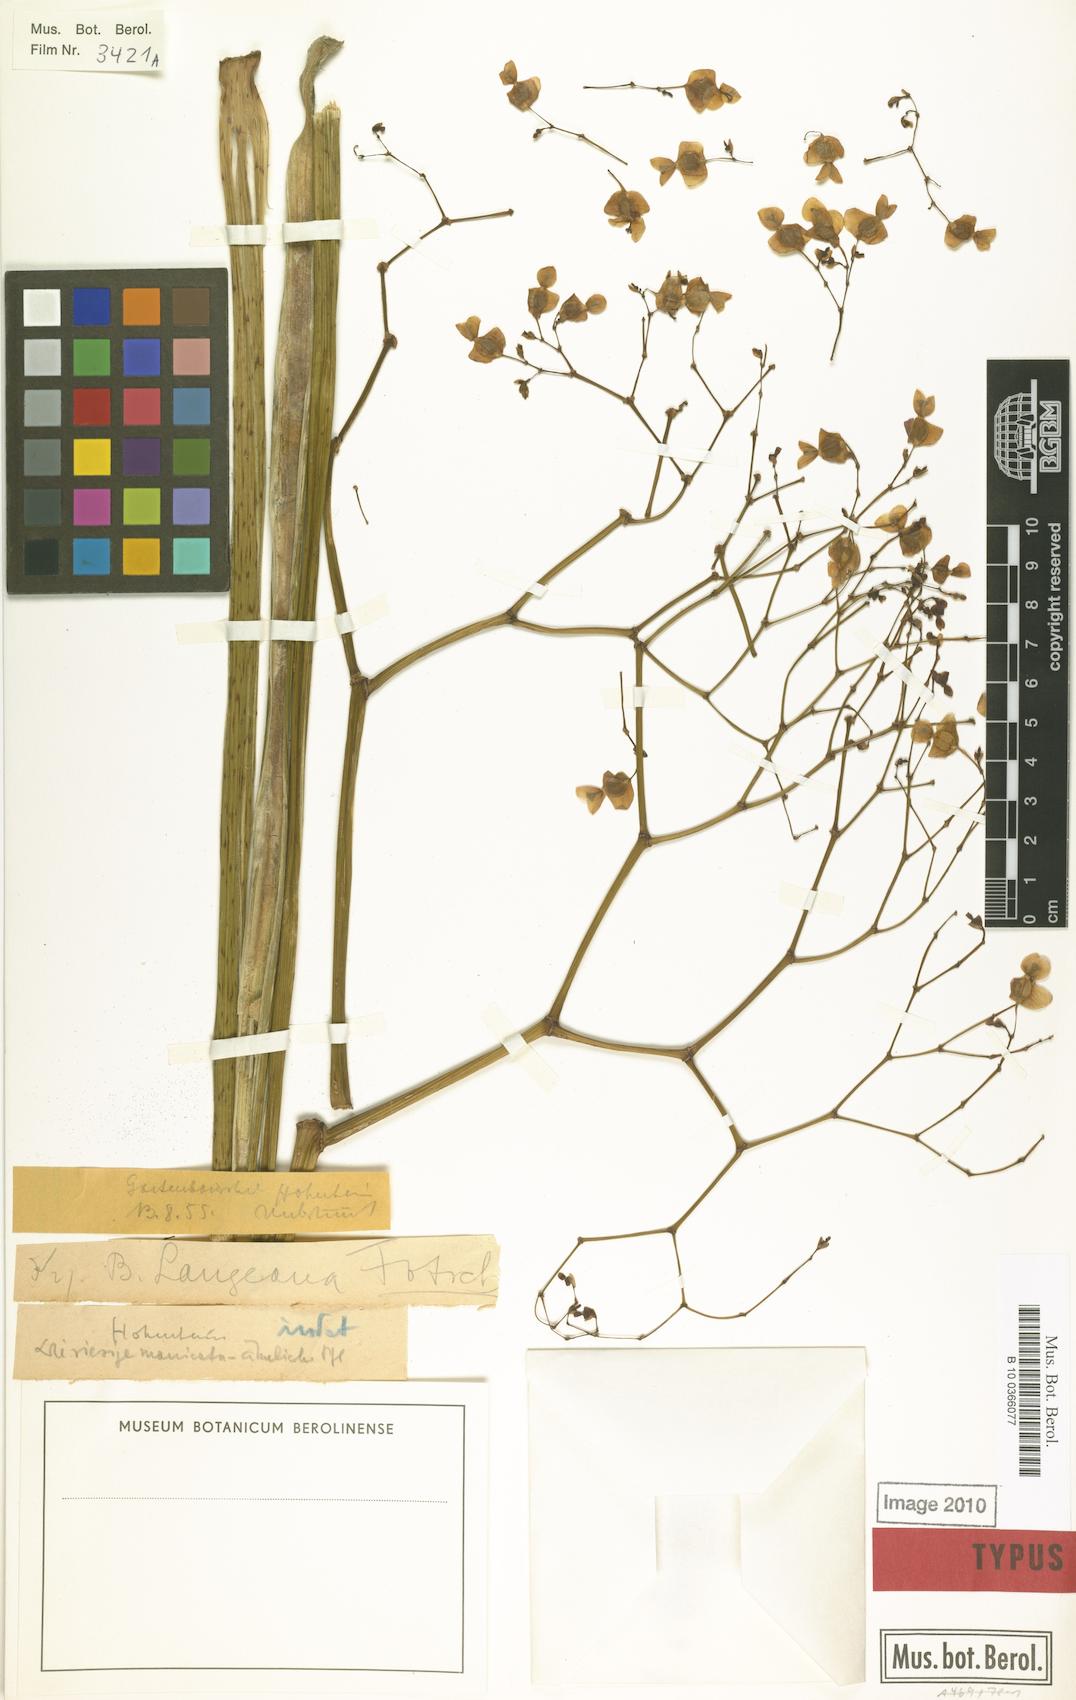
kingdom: Plantae
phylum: Tracheophyta
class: Magnoliopsida
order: Cucurbitales
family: Begoniaceae
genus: Begonia
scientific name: Begonia langeana
